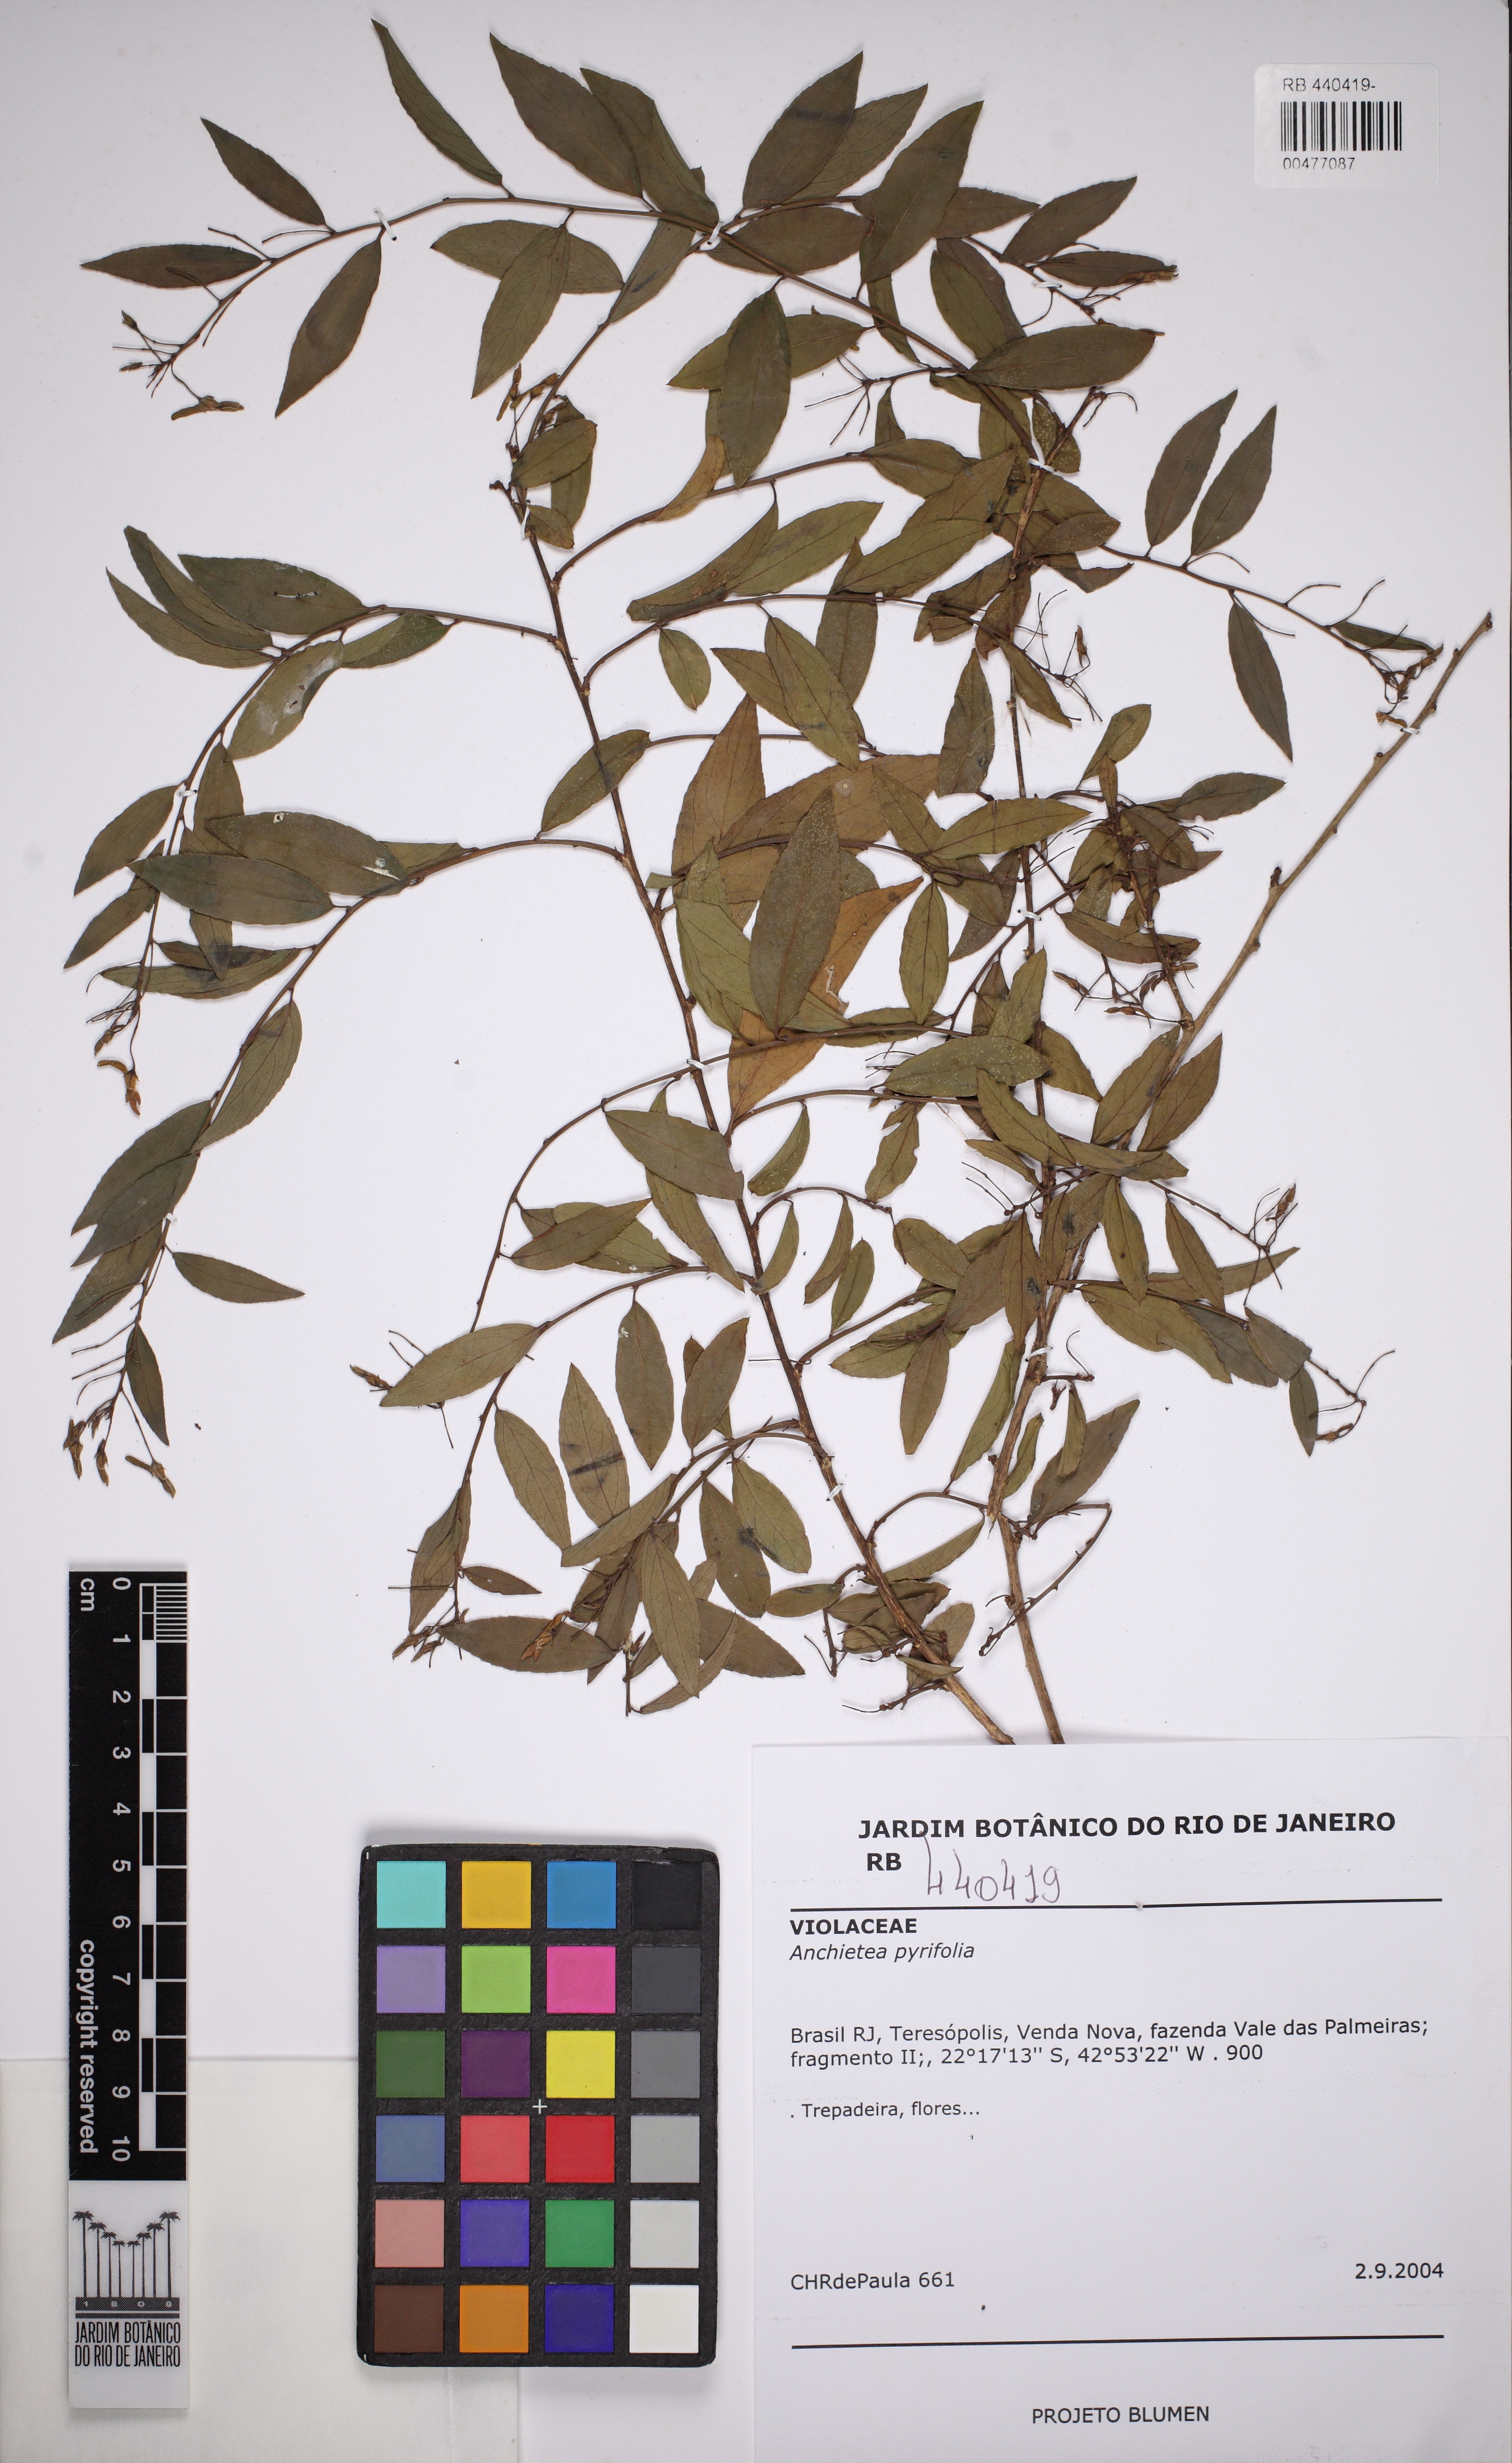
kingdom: Plantae
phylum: Tracheophyta
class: Magnoliopsida
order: Malpighiales
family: Violaceae
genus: Anchietea
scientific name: Anchietea pyrifolia
